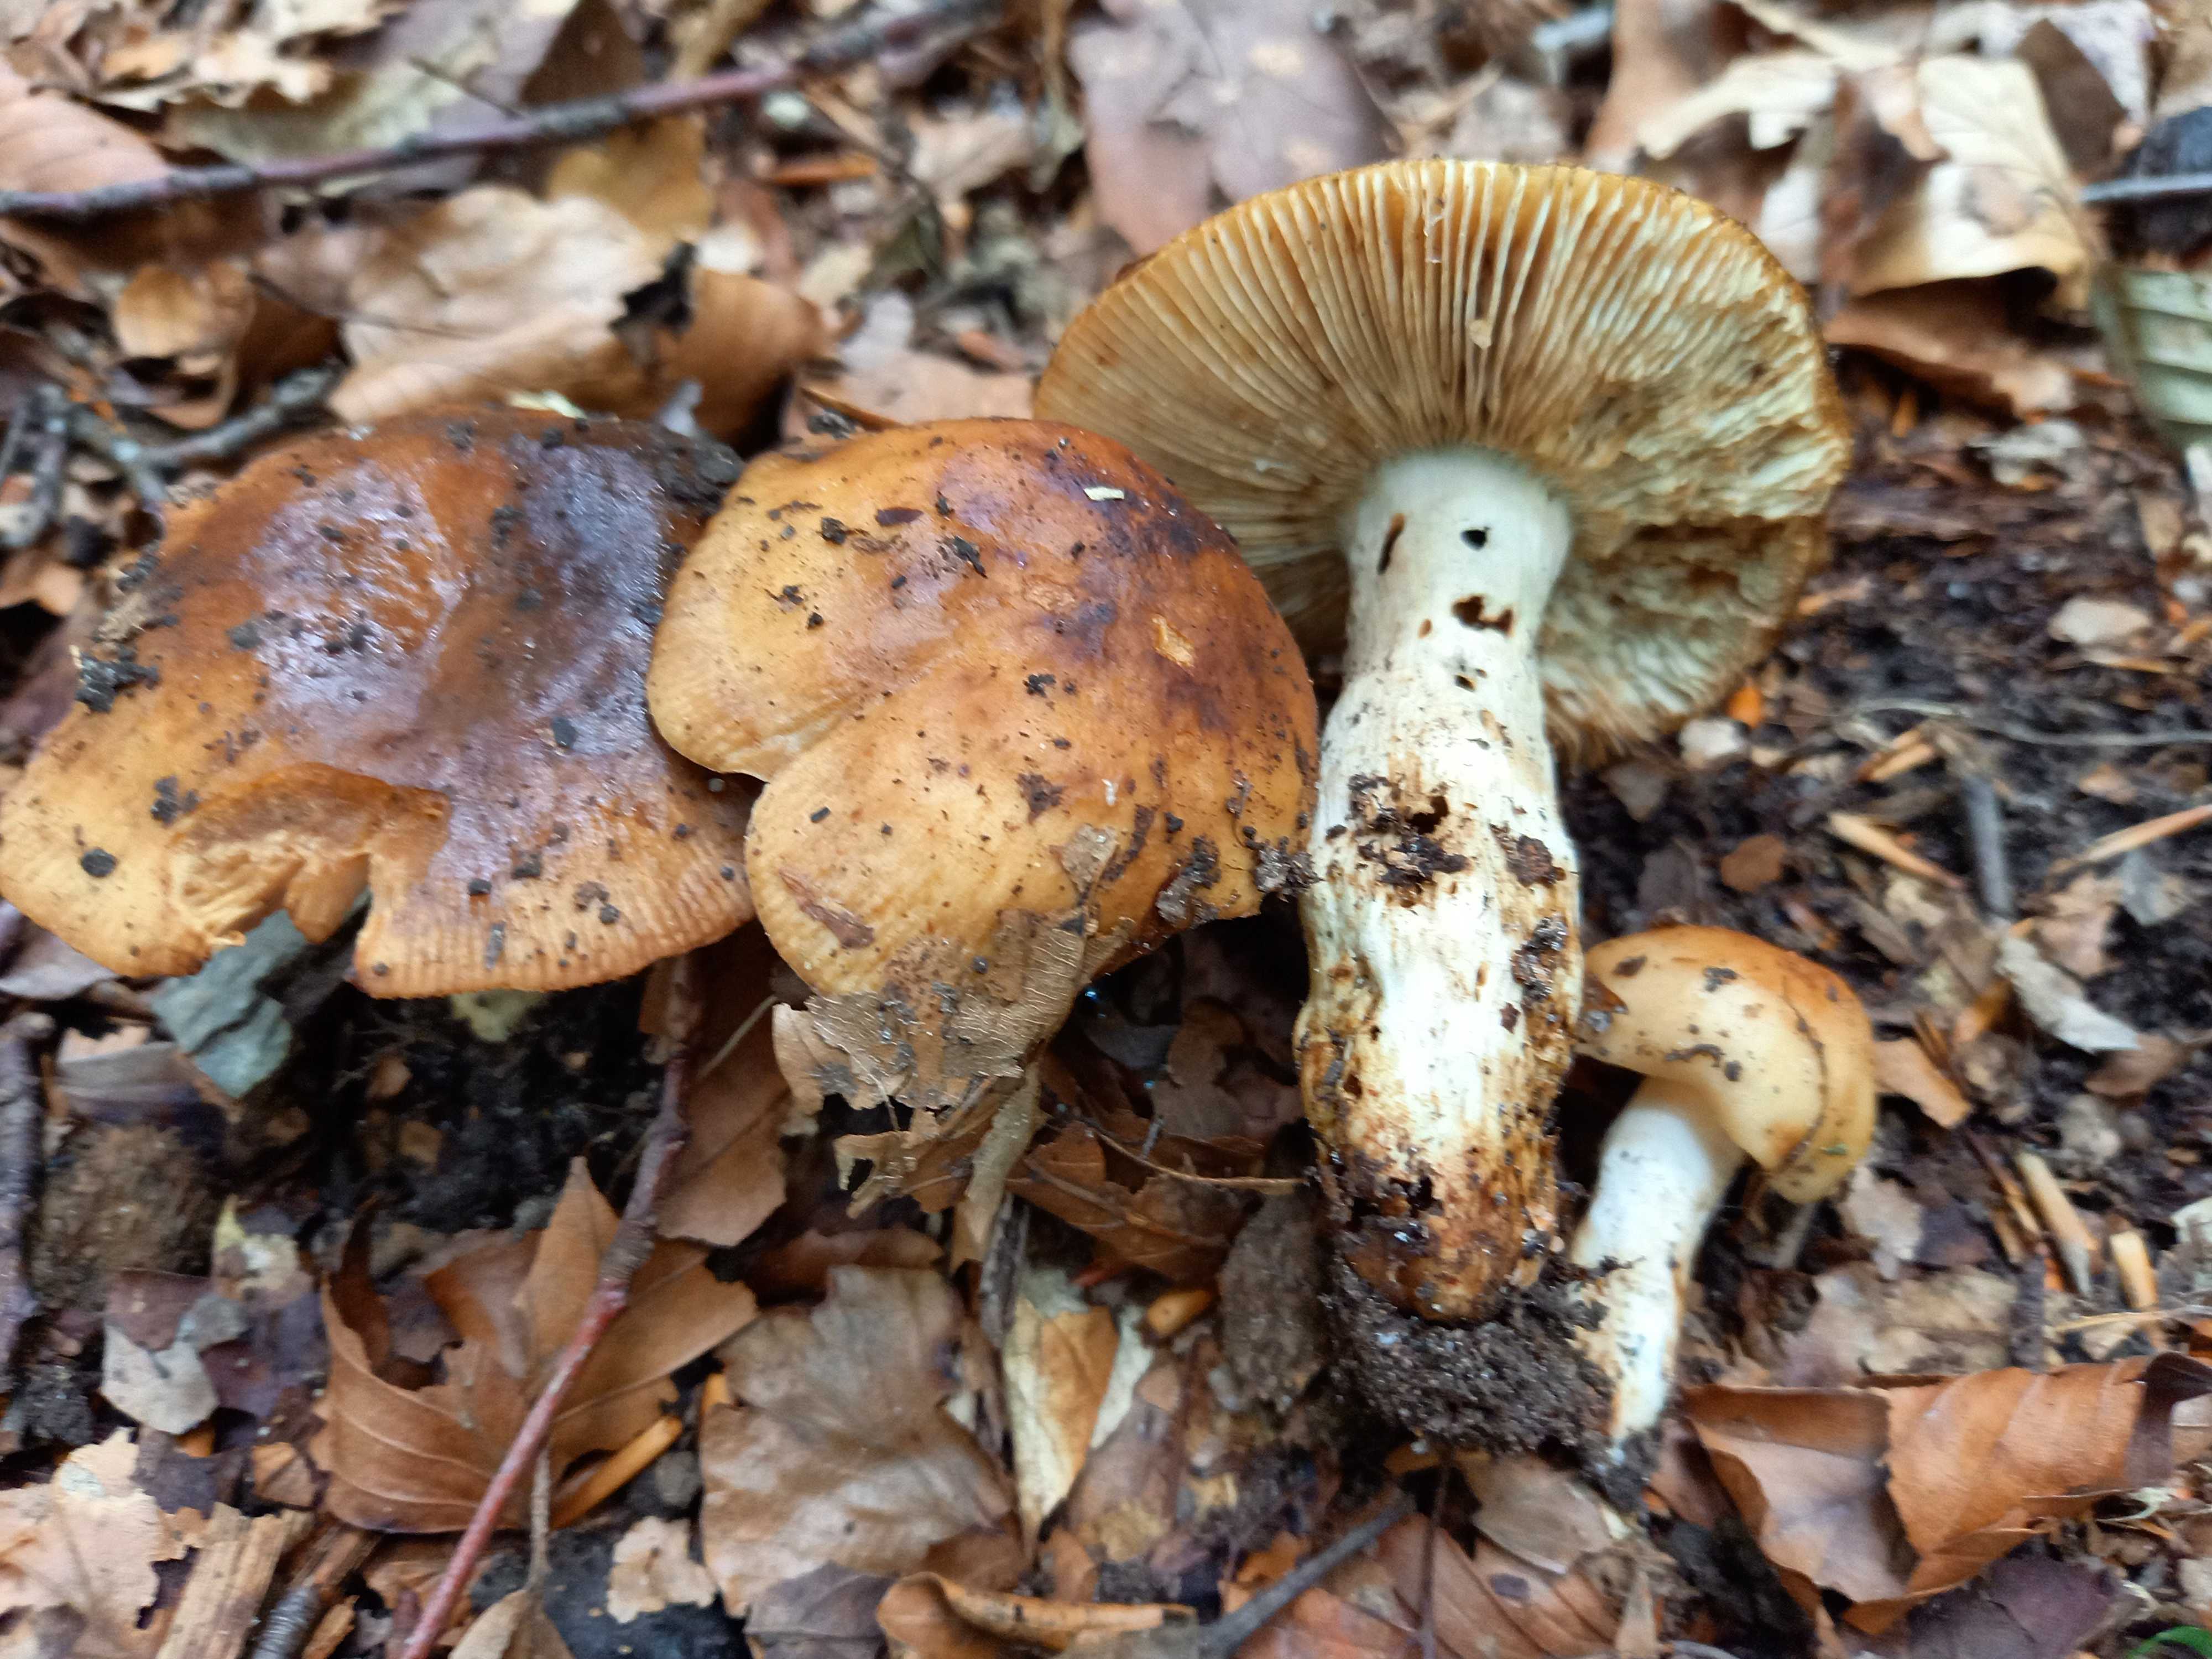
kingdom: Fungi
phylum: Basidiomycota
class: Agaricomycetes
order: Russulales
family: Russulaceae
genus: Russula
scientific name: Russula grata
